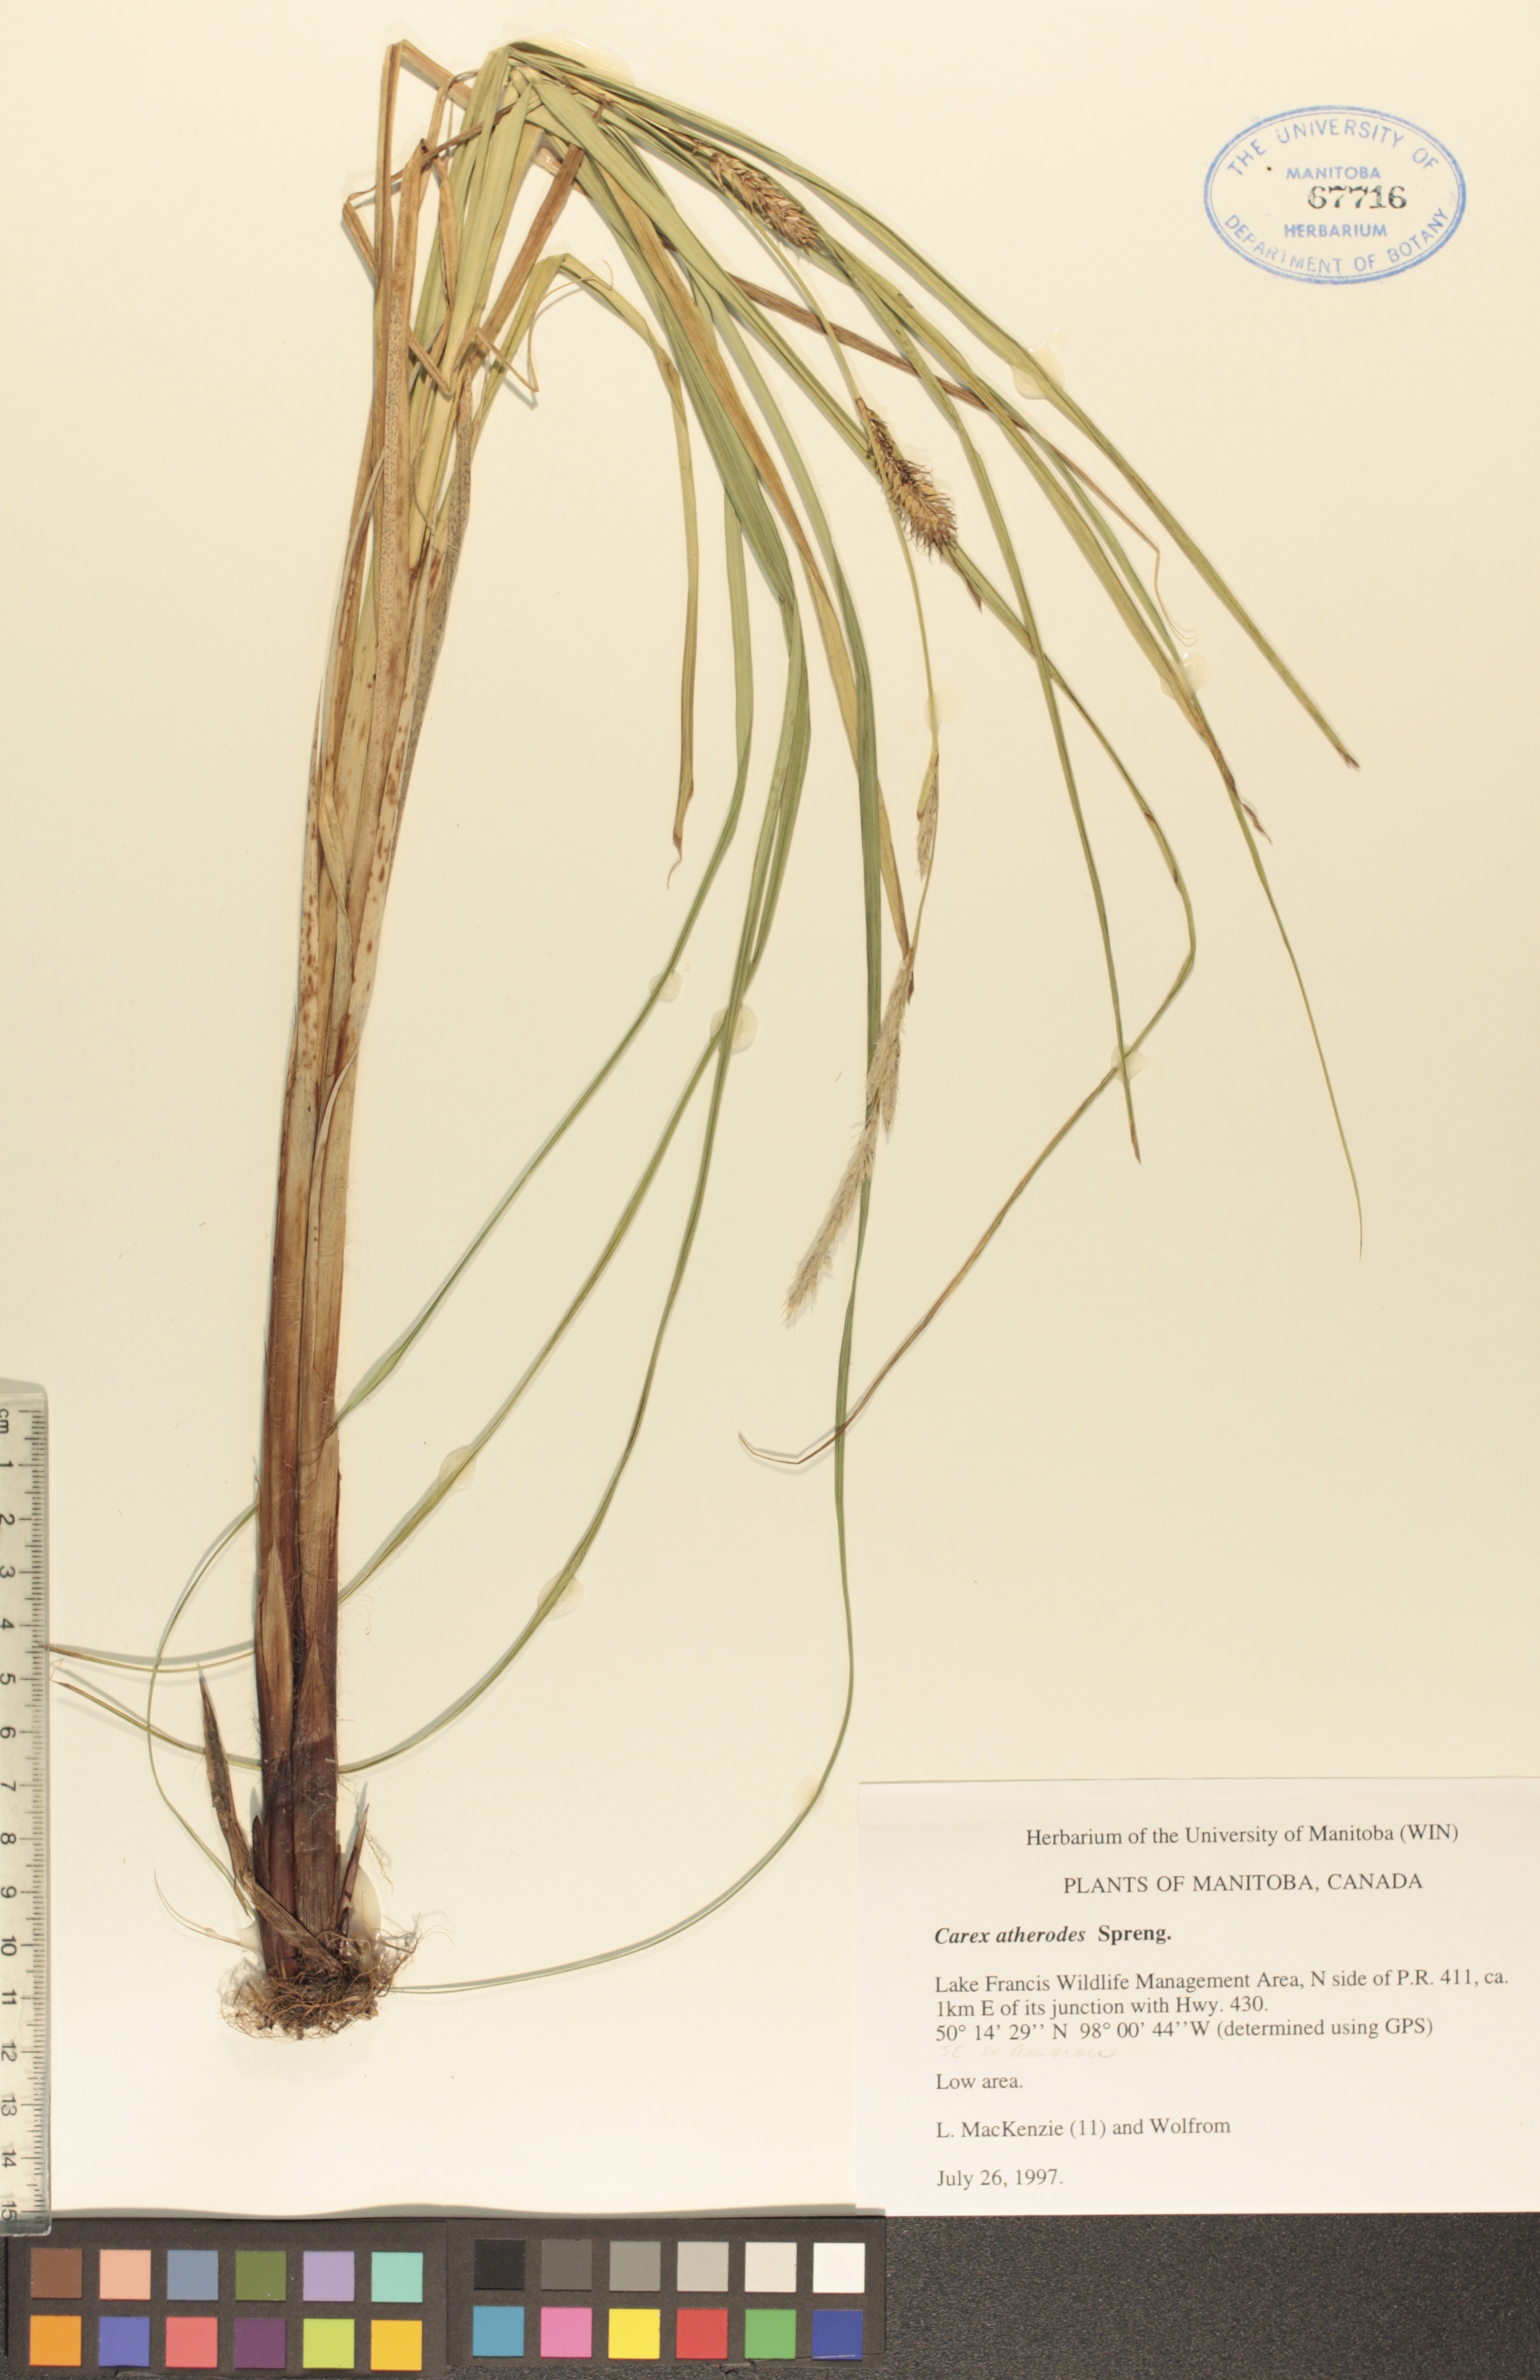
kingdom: Plantae
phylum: Tracheophyta
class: Liliopsida
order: Poales
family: Cyperaceae
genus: Carex
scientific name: Carex atherodes
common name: Wheat sedge
